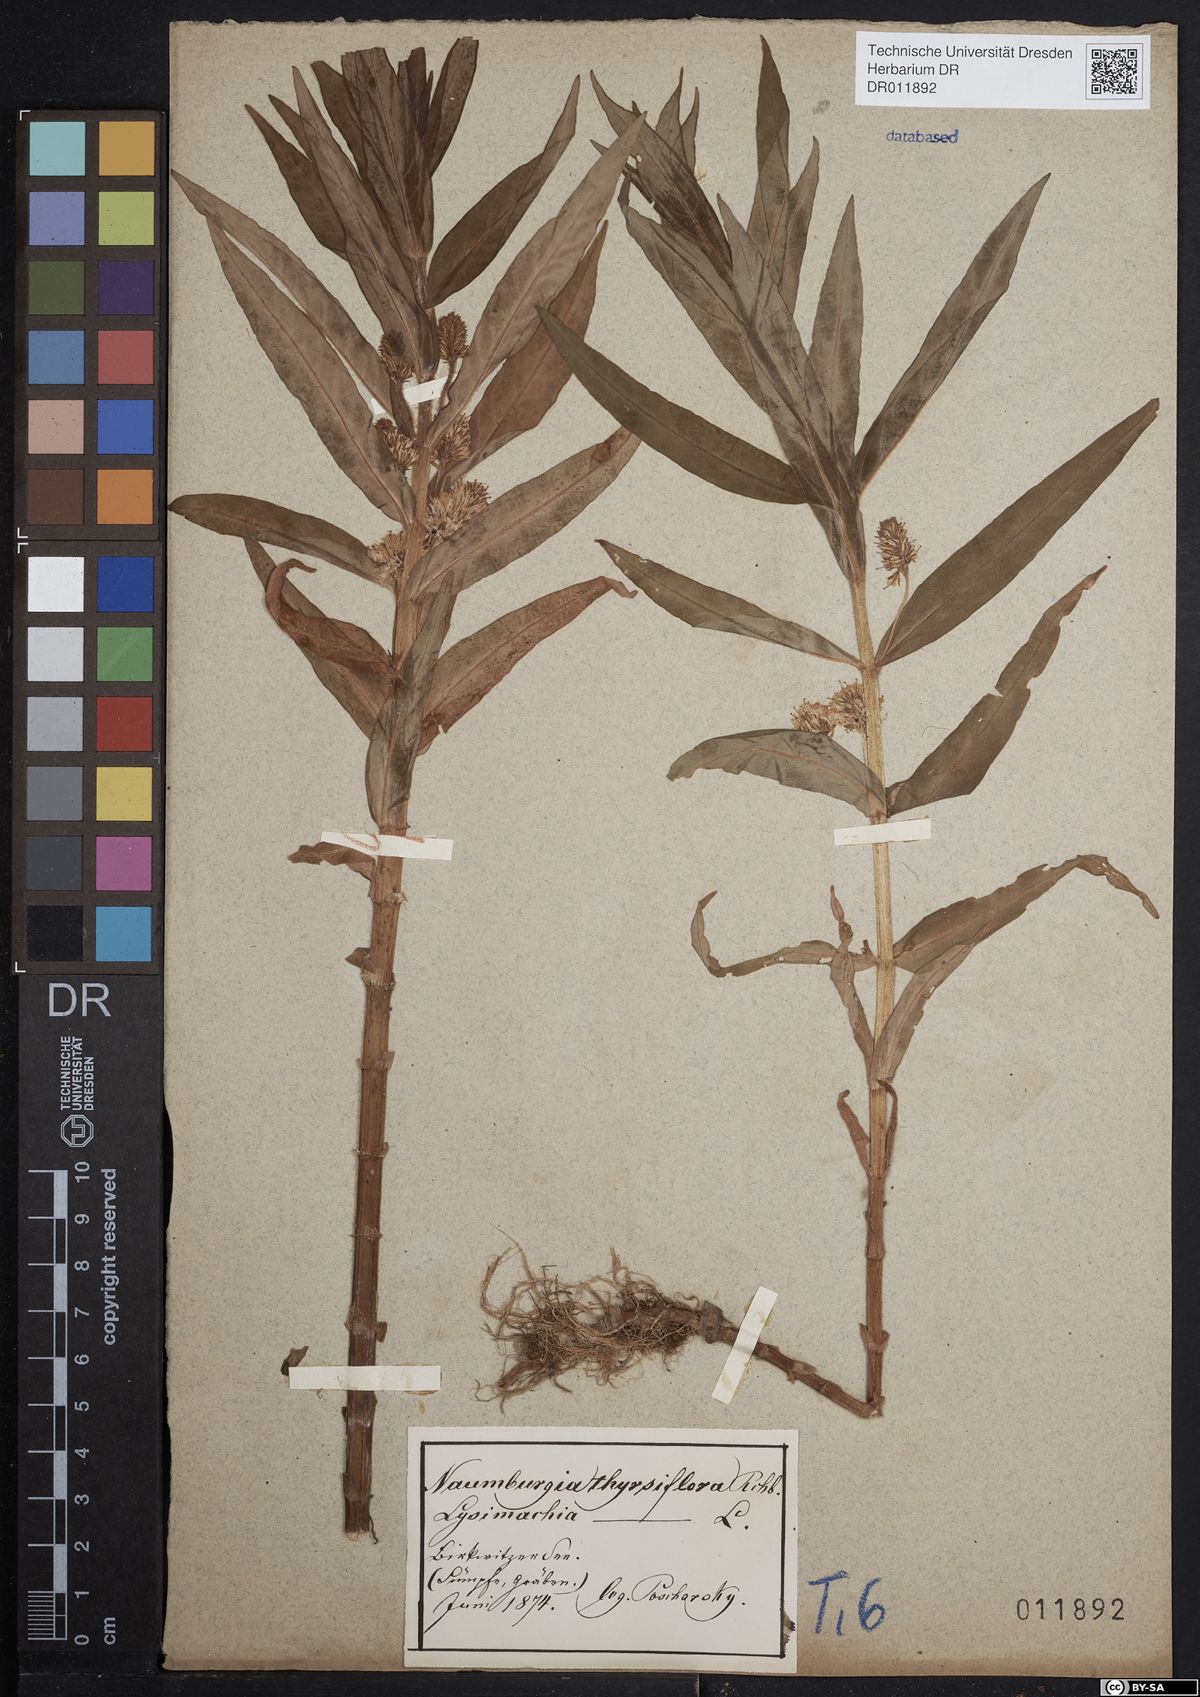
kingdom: Plantae
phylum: Tracheophyta
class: Magnoliopsida
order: Ericales
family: Primulaceae
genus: Lysimachia
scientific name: Lysimachia thyrsiflora
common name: Tufted loosestrife
